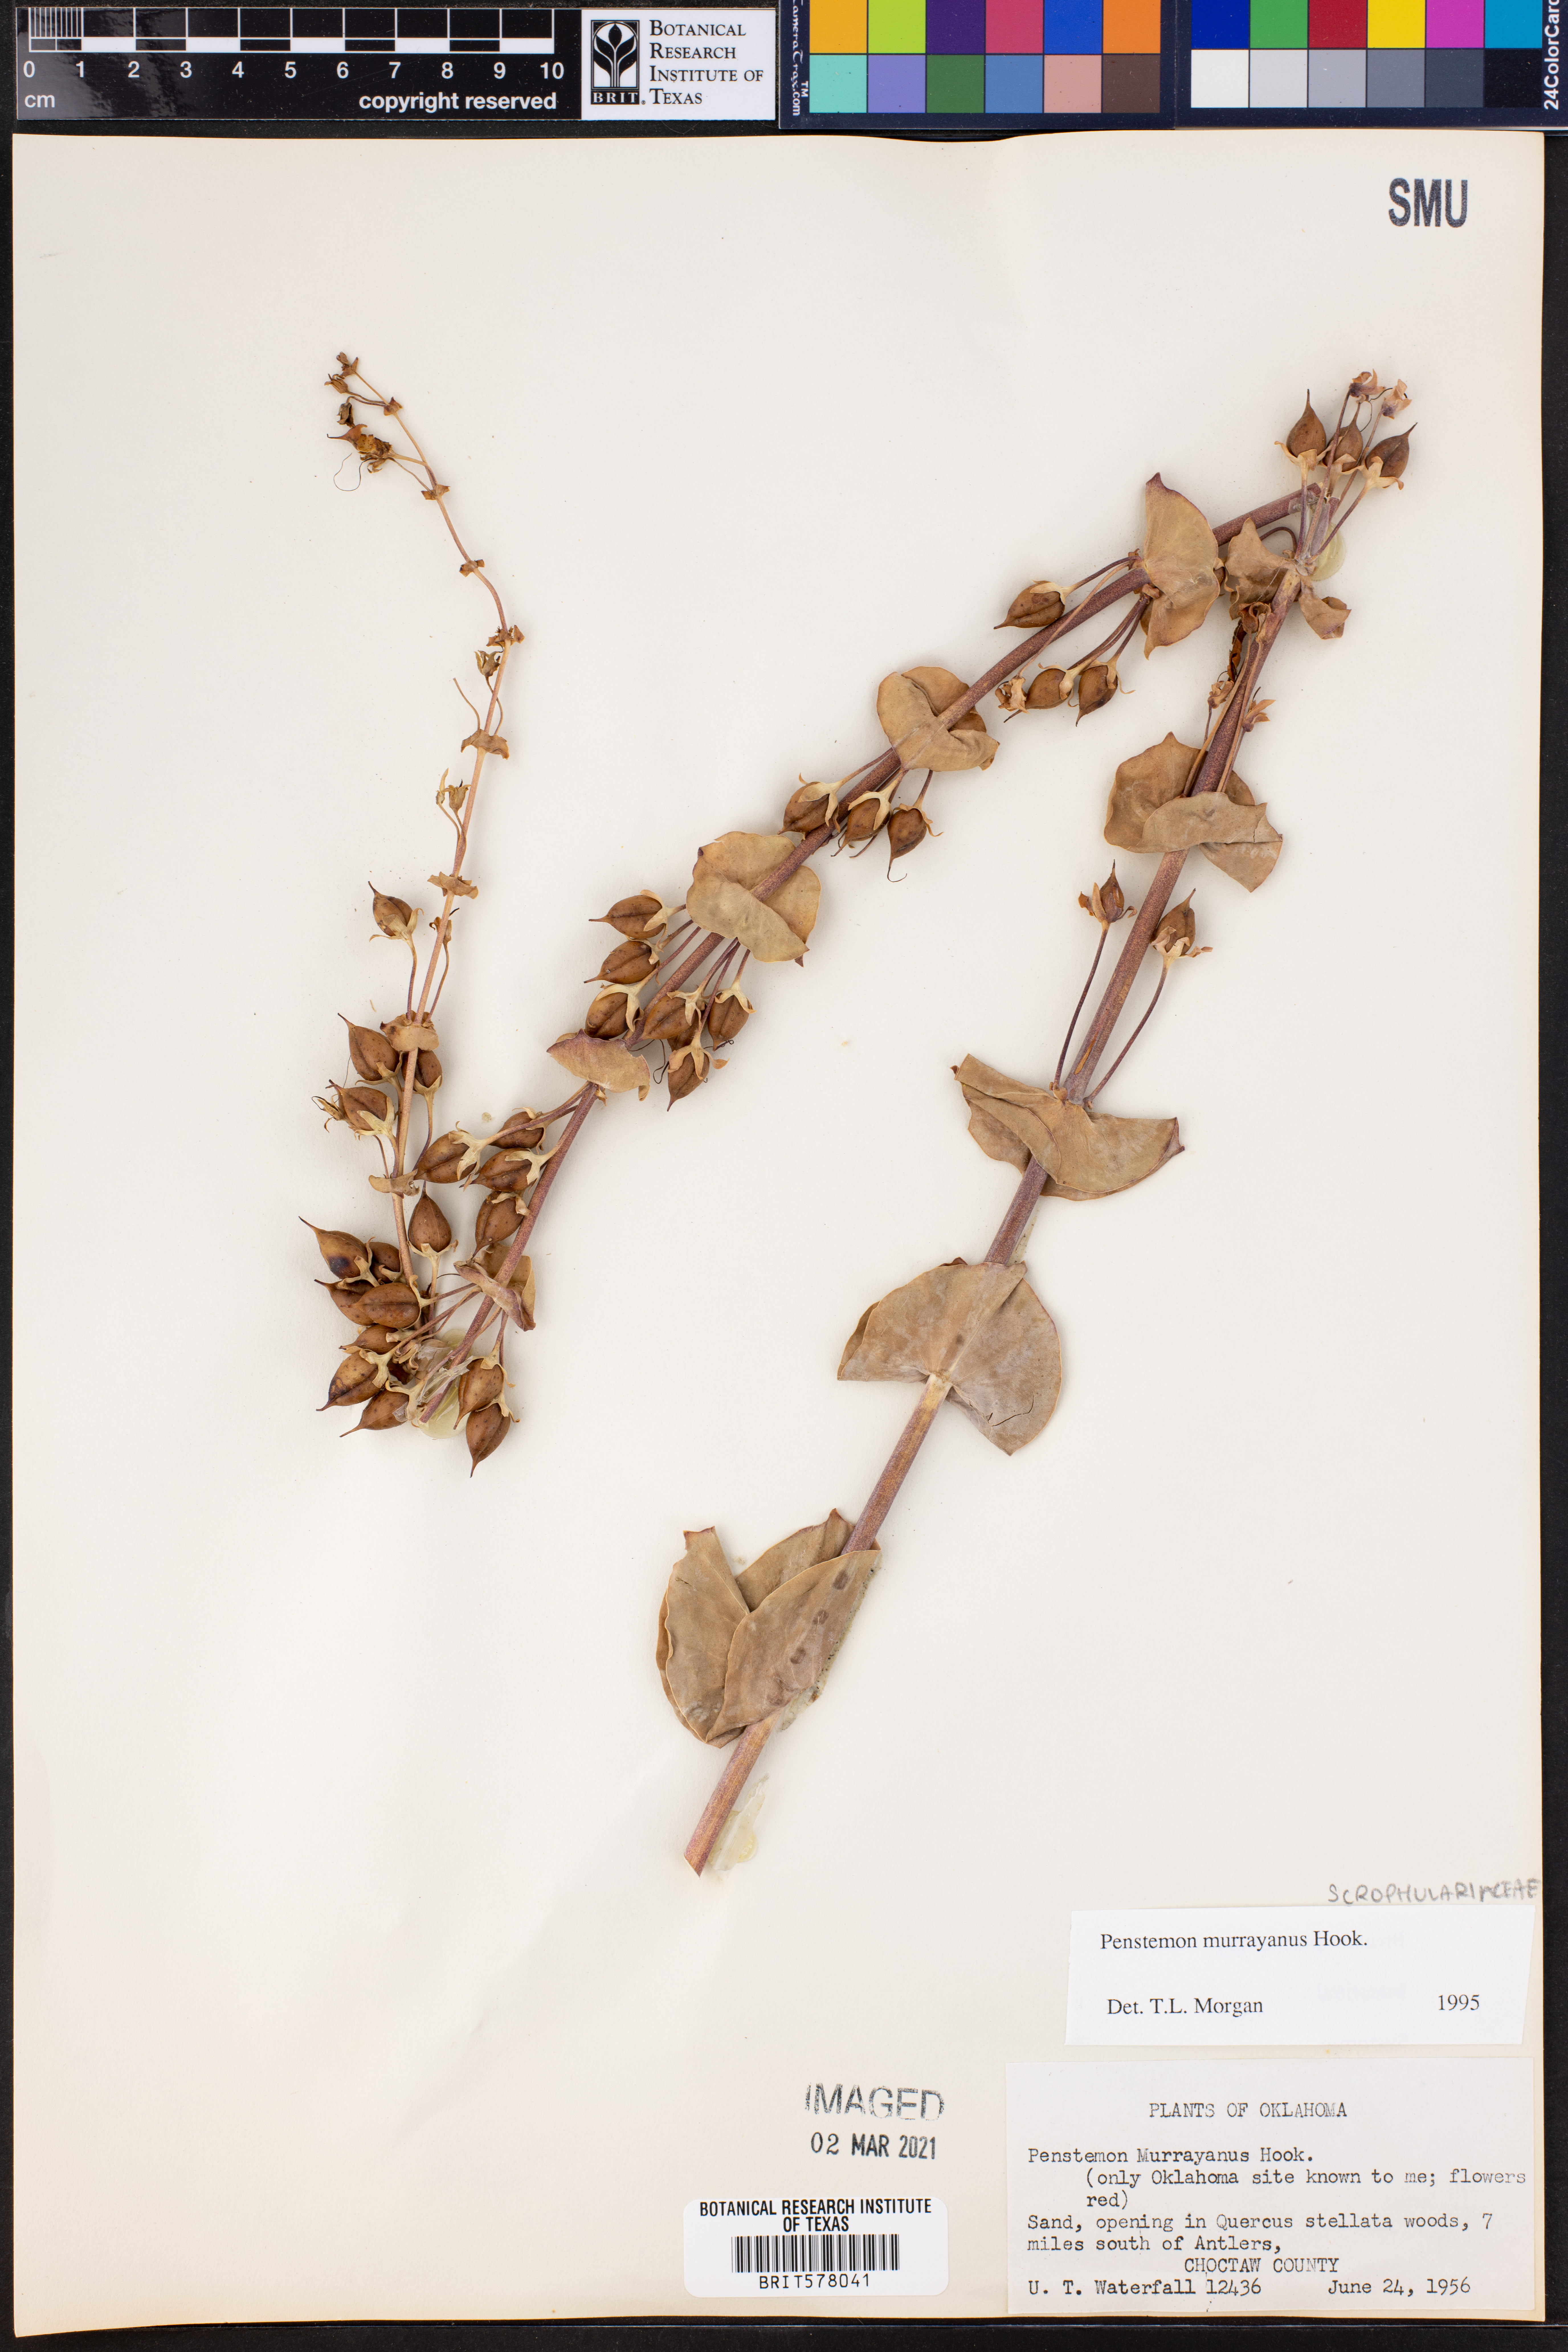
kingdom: Plantae
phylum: Tracheophyta
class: Magnoliopsida
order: Lamiales
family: Plantaginaceae
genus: Penstemon
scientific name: Penstemon murrayanus
